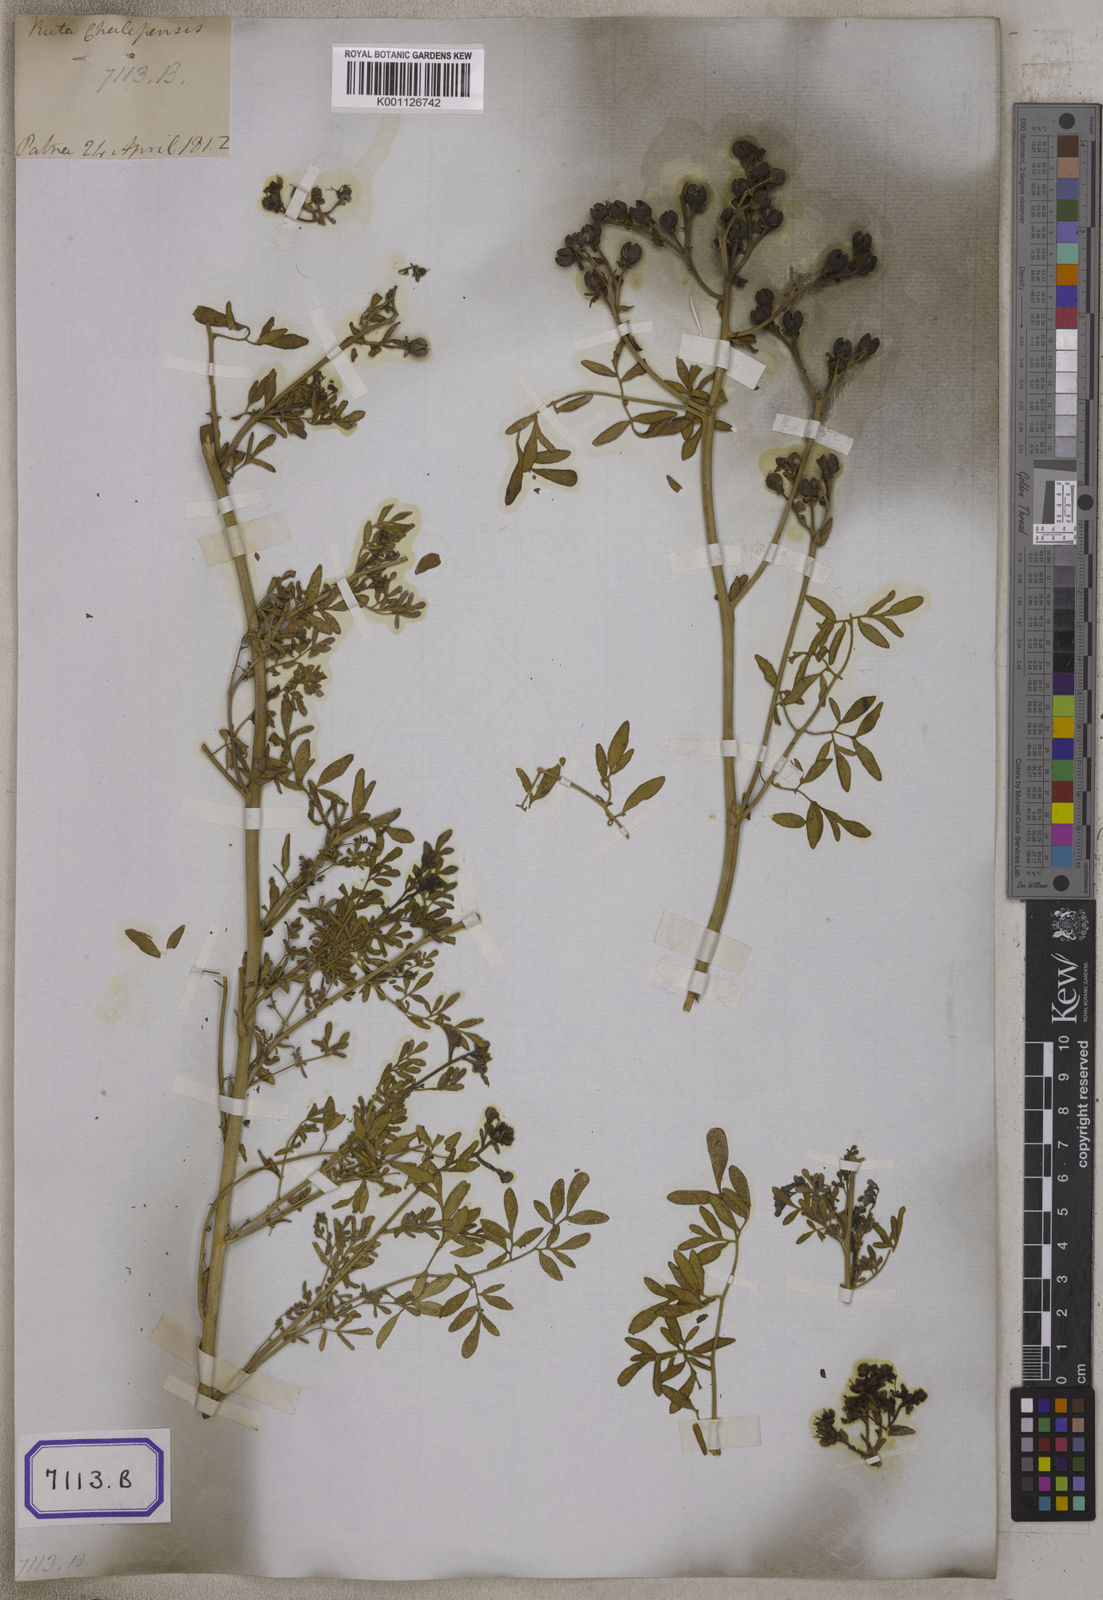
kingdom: Plantae
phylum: Tracheophyta
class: Magnoliopsida
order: Sapindales
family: Rutaceae
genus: Ruta
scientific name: Ruta
